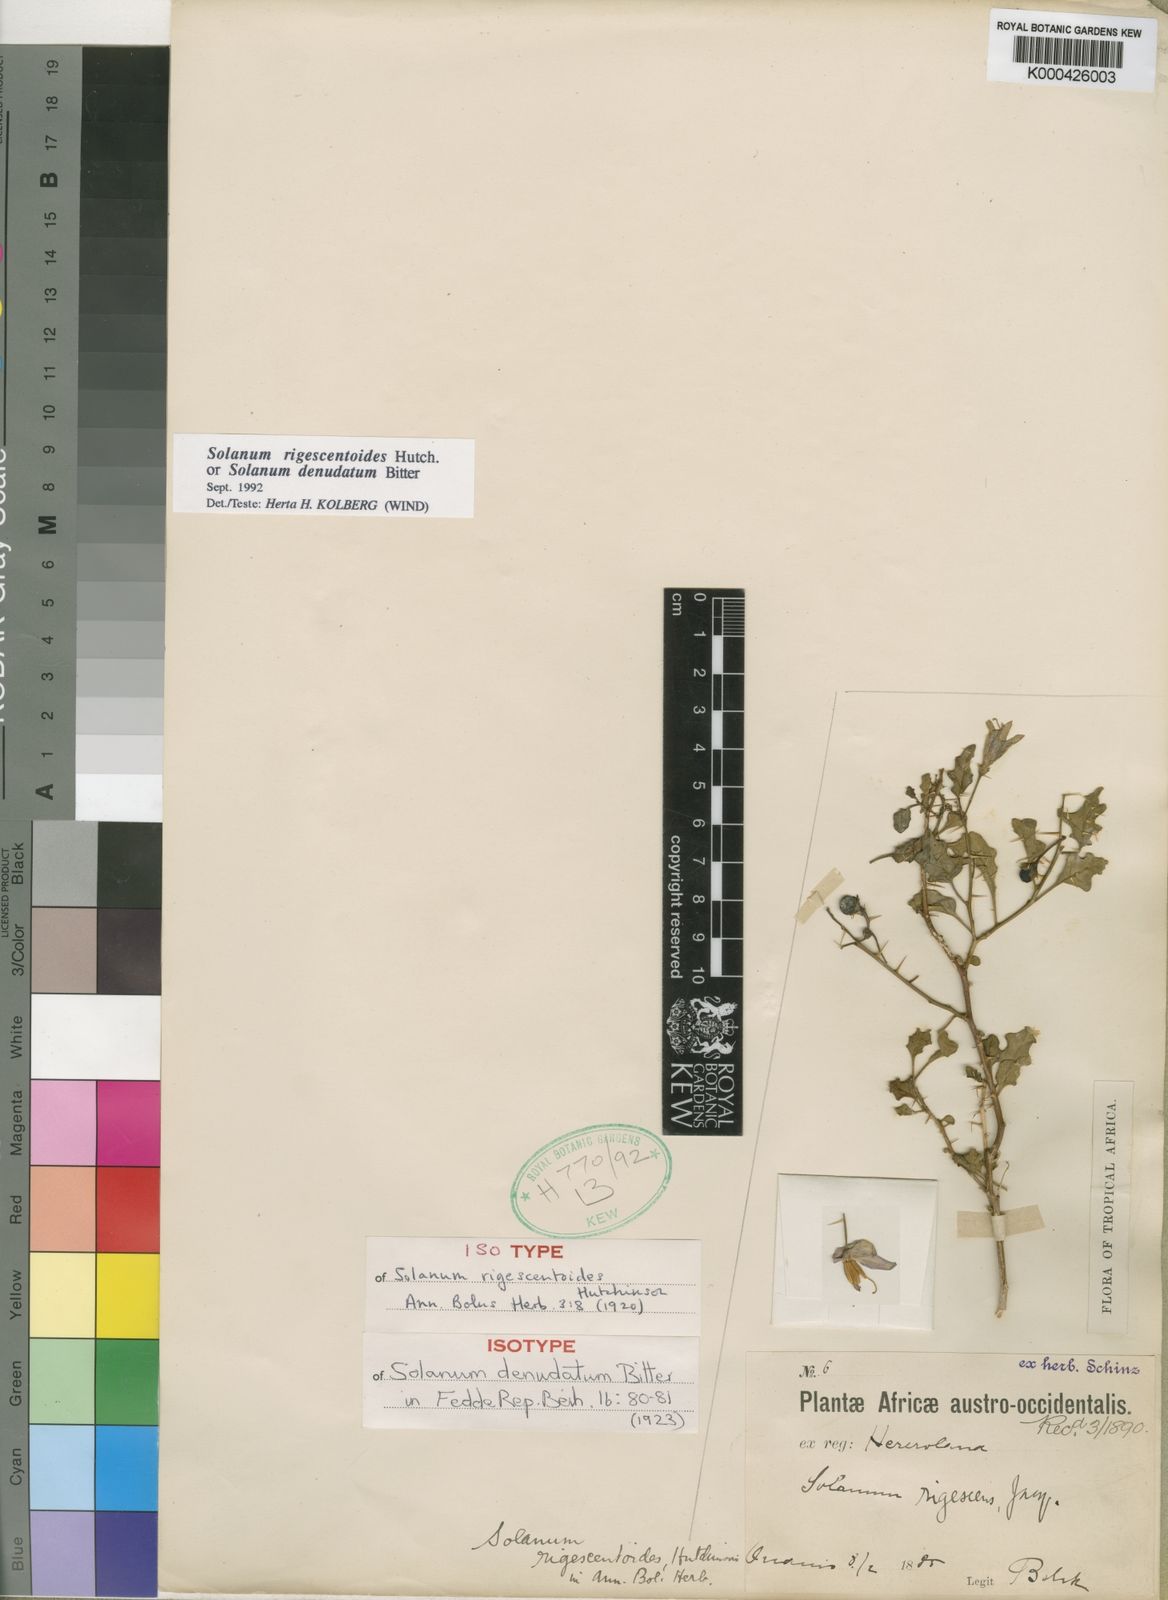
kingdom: Plantae
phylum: Tracheophyta
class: Magnoliopsida
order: Solanales
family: Solanaceae
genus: Solanum
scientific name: Solanum humile
